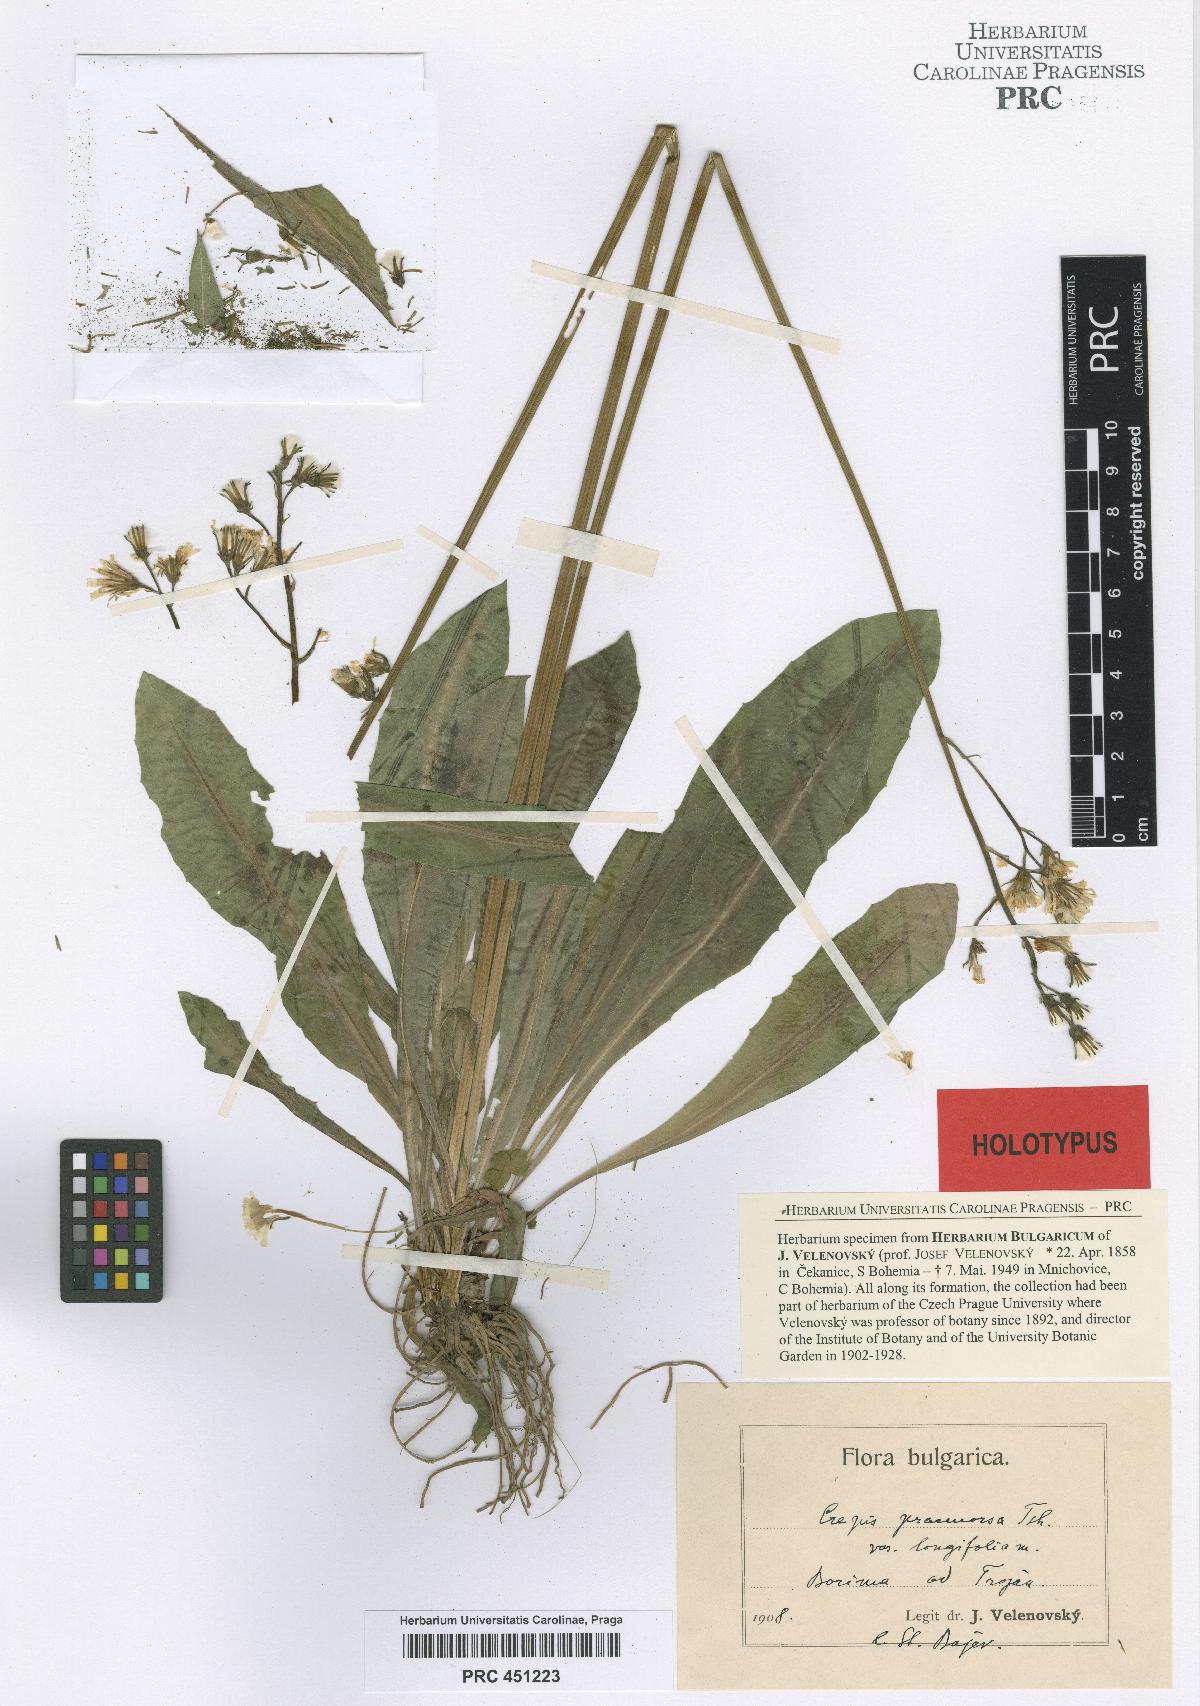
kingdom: Plantae
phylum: Tracheophyta
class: Magnoliopsida
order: Asterales
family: Asteraceae
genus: Crepis
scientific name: Crepis praemorsa
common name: Leafless hawk's-beard
